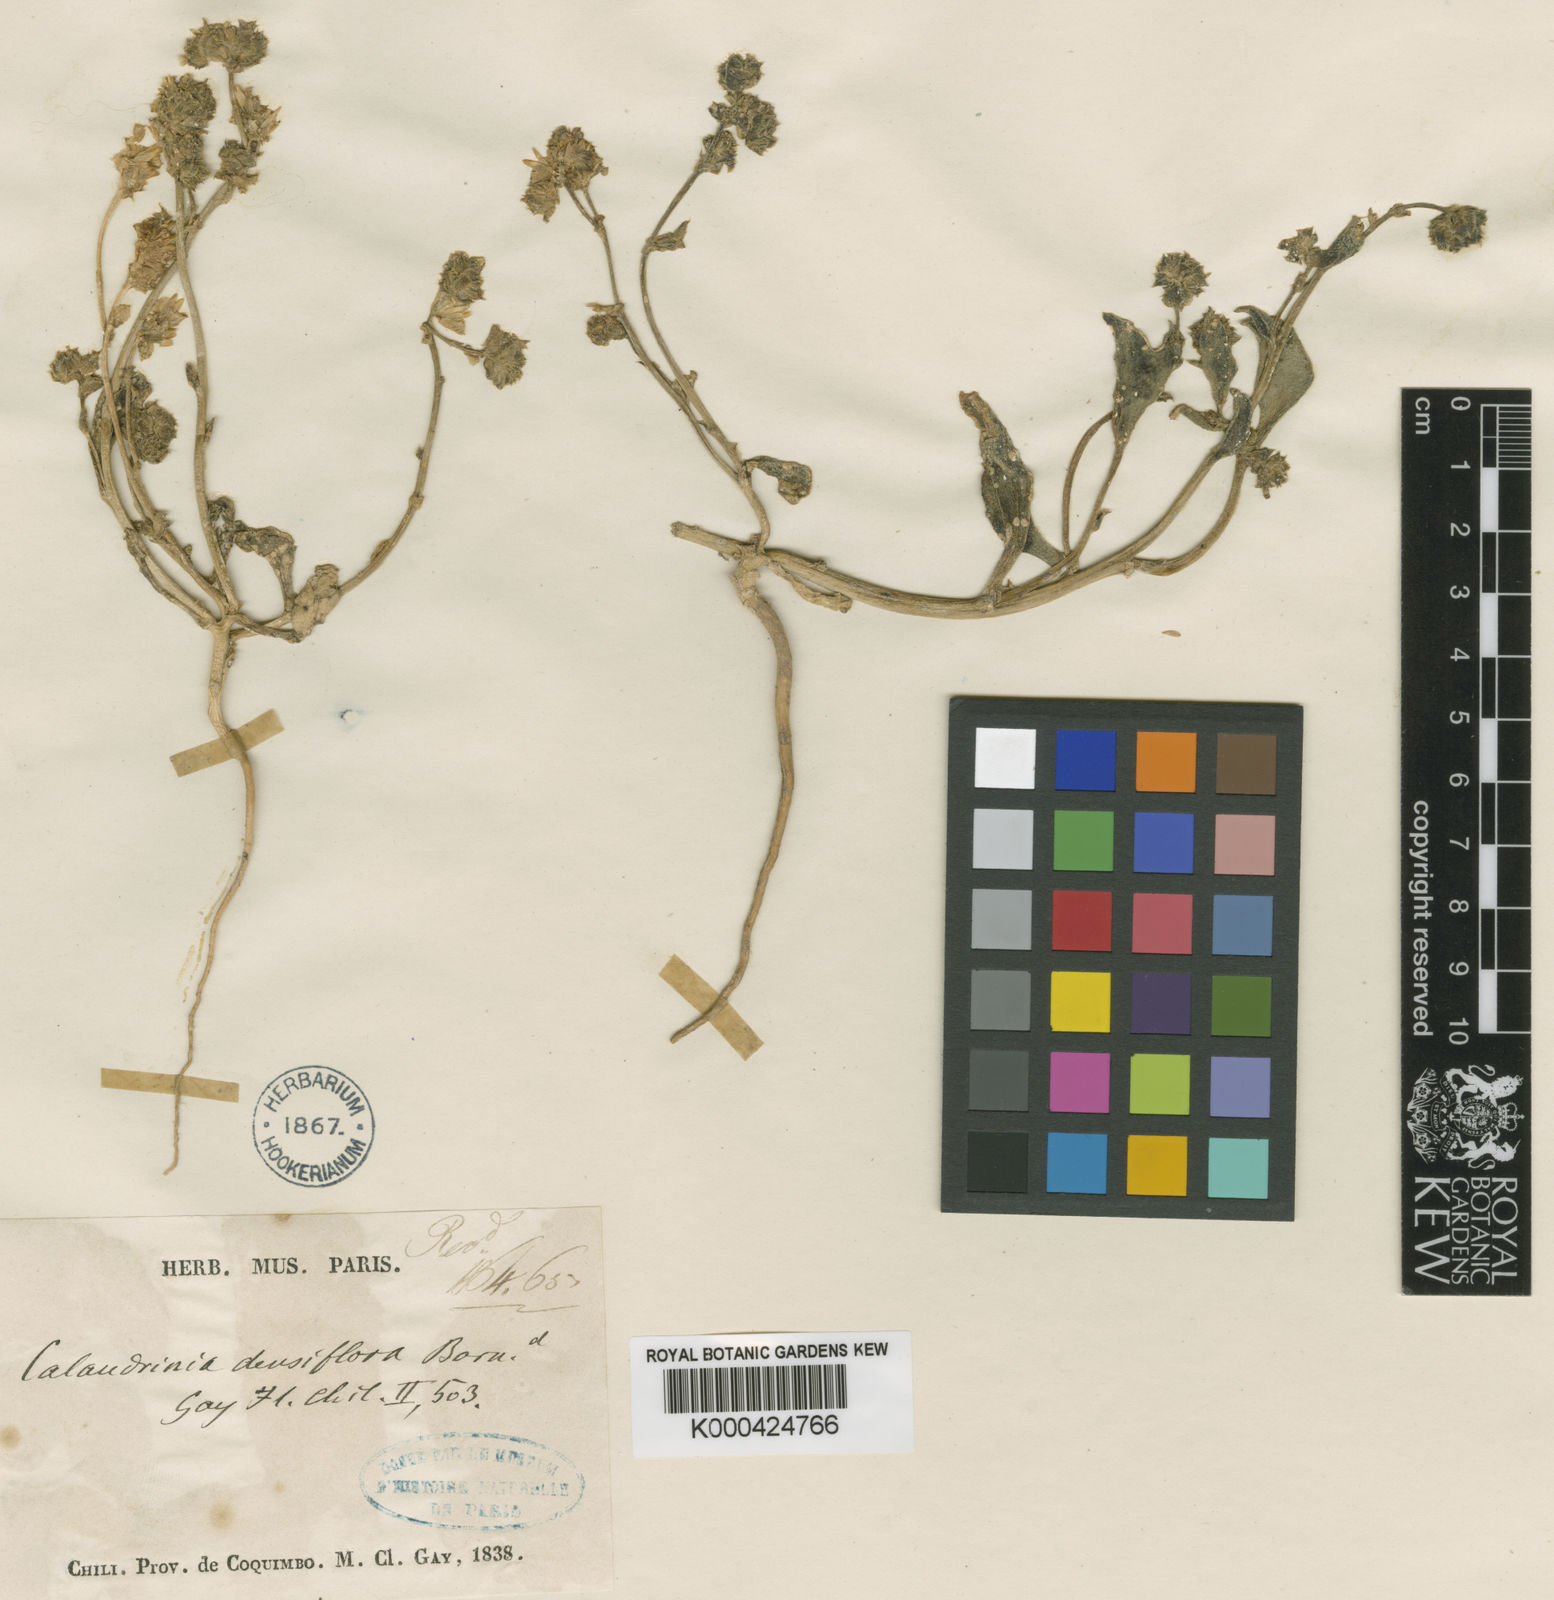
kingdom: Plantae
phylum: Tracheophyta
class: Magnoliopsida
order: Caryophyllales
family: Montiaceae
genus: Cistanthe
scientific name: Cistanthe
